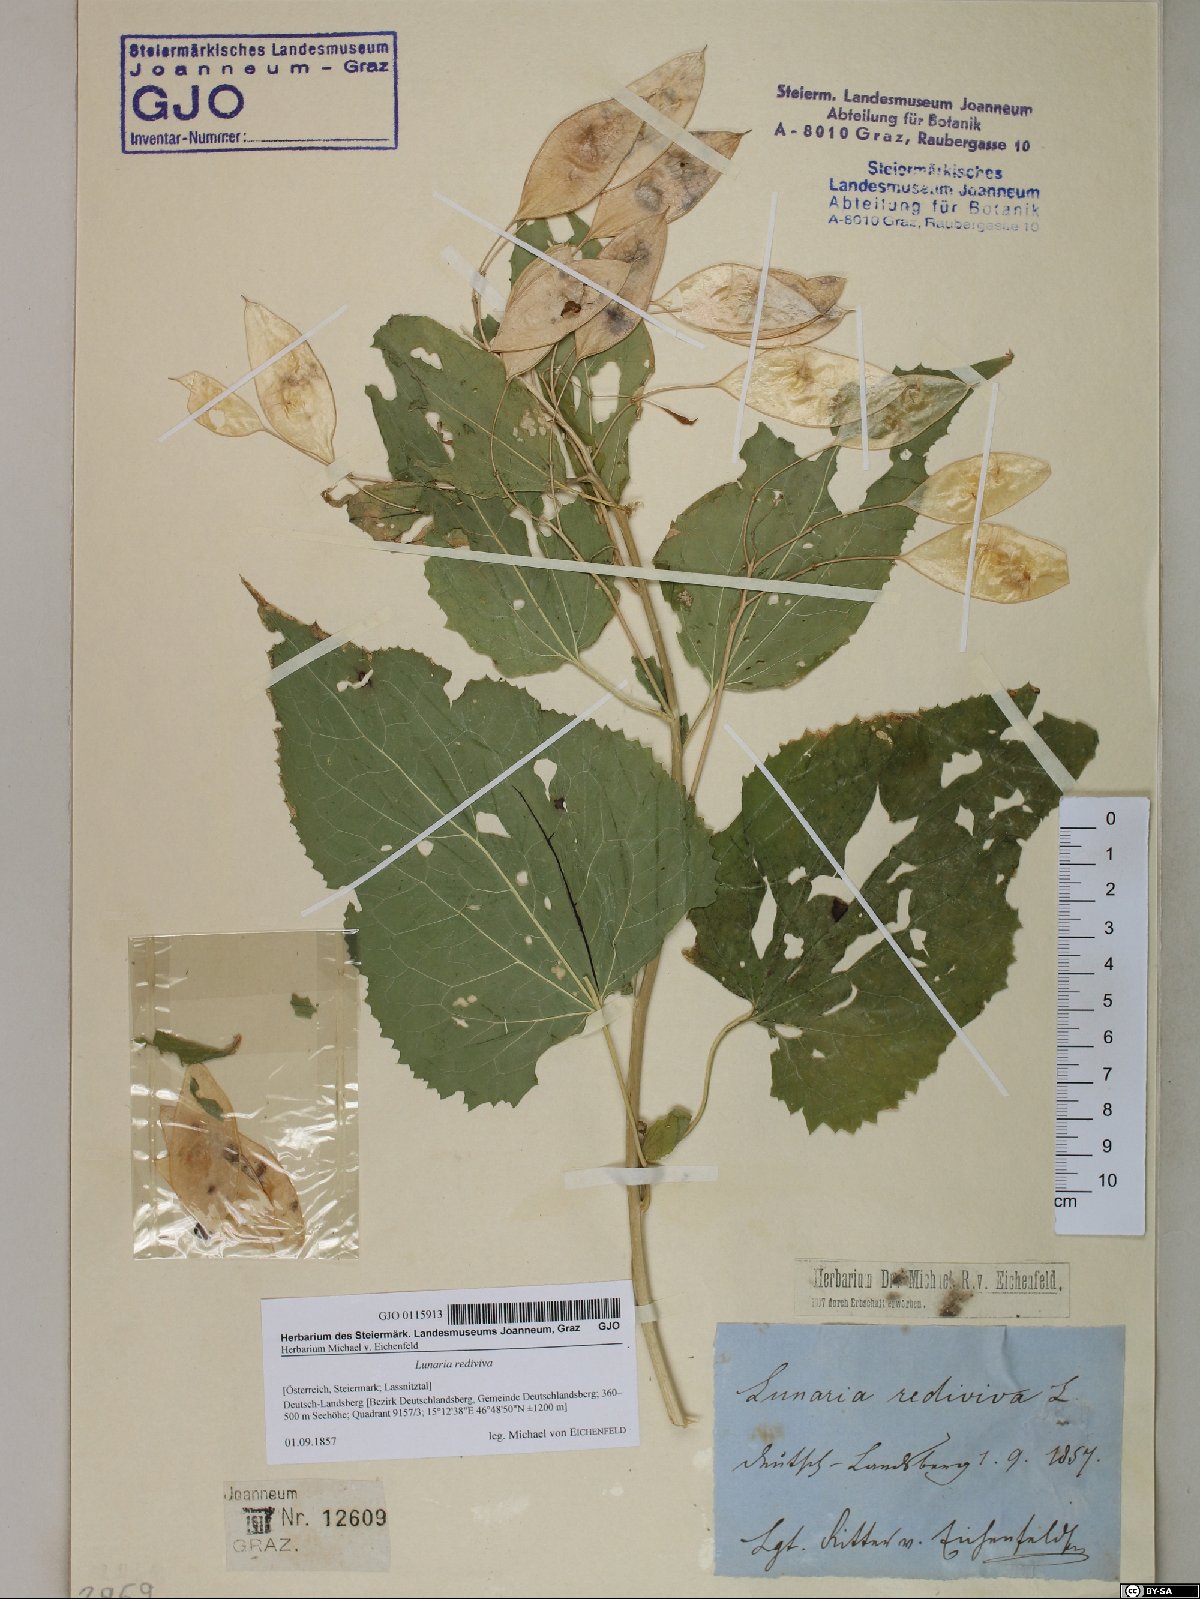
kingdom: Plantae
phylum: Tracheophyta
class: Magnoliopsida
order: Brassicales
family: Brassicaceae
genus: Lunaria
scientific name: Lunaria rediviva
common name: Perennial honesty
